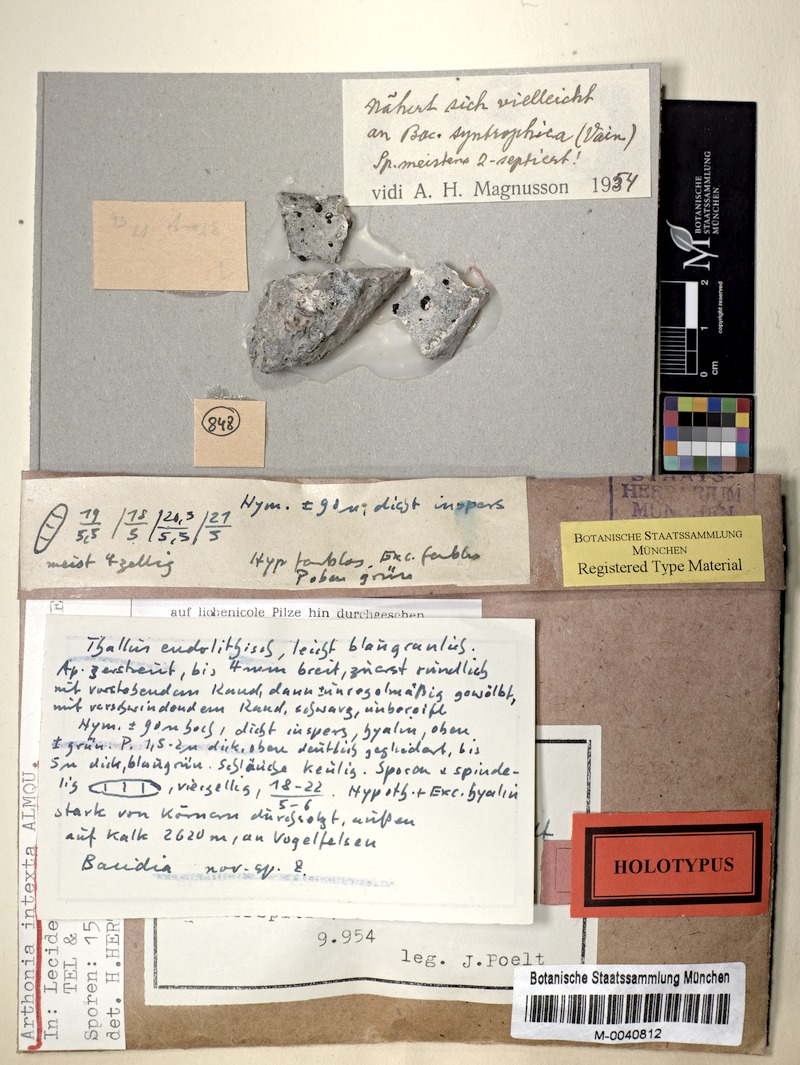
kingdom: Fungi
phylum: Ascomycota
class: Arthoniomycetes
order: Arthoniales
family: Arthoniaceae
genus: Arthonia
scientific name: Arthonia intexta
